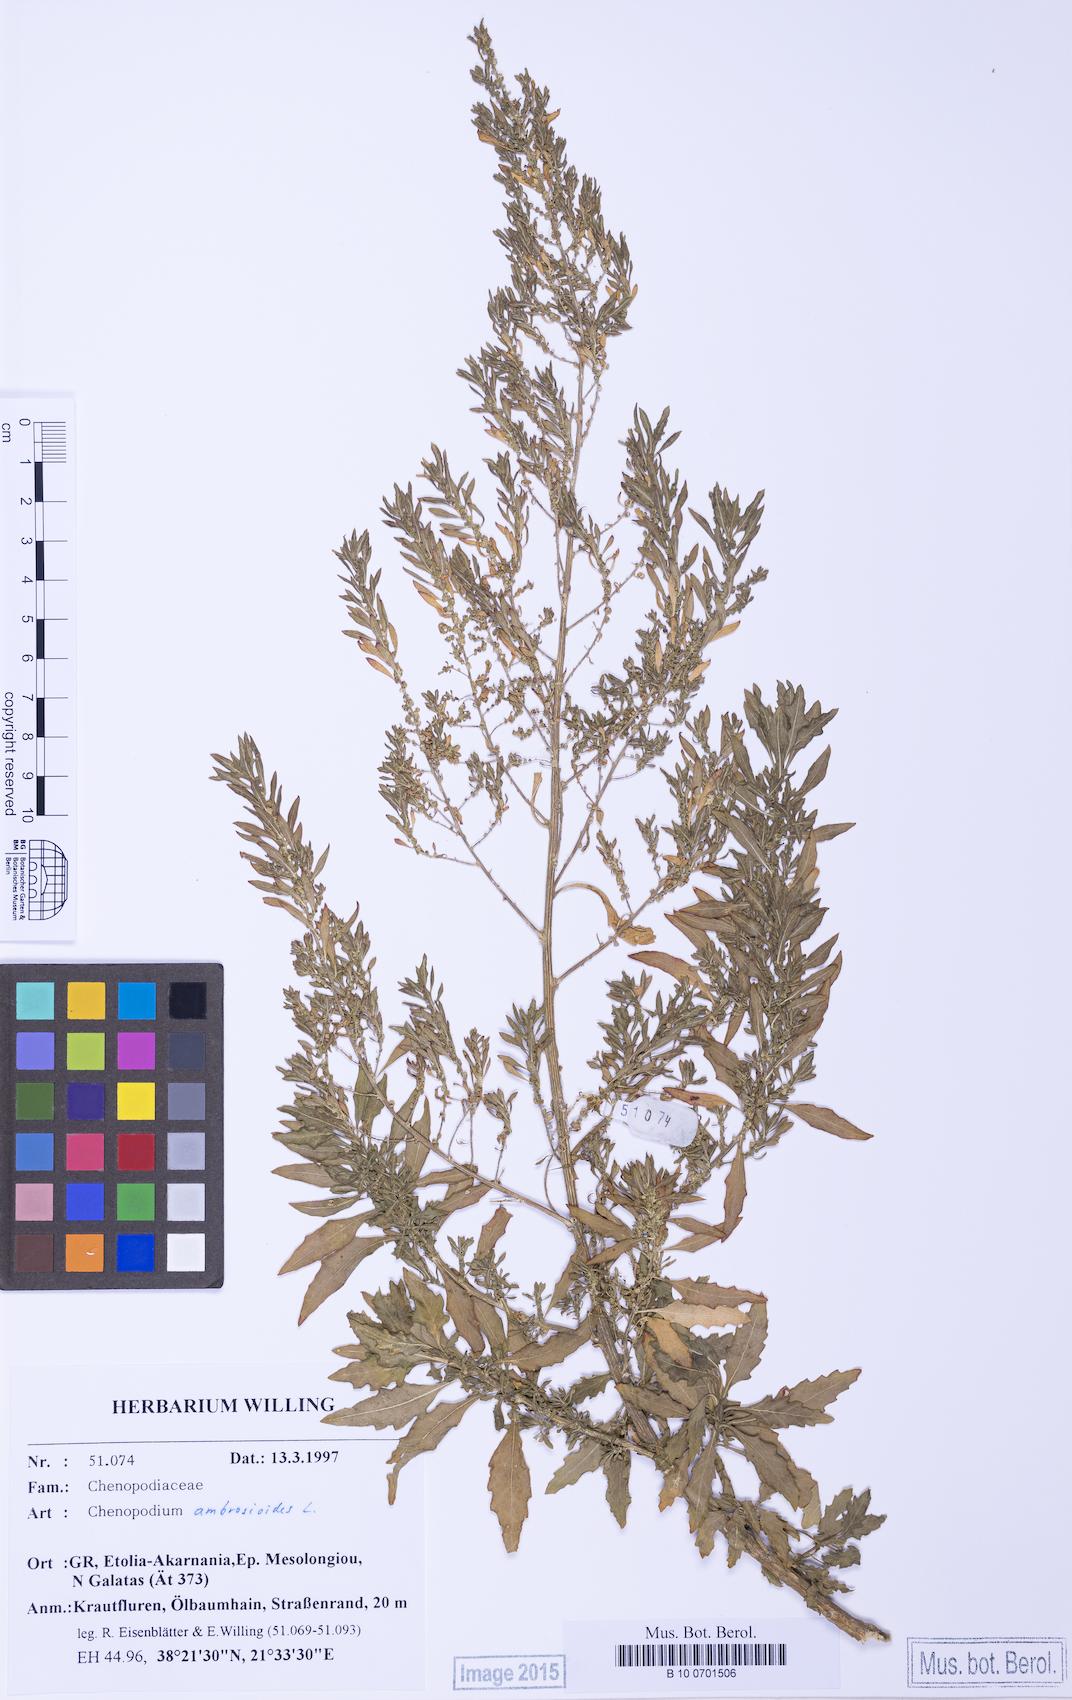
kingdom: Plantae
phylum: Tracheophyta
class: Magnoliopsida
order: Caryophyllales
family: Amaranthaceae
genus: Dysphania
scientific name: Dysphania ambrosioides
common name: Wormseed
